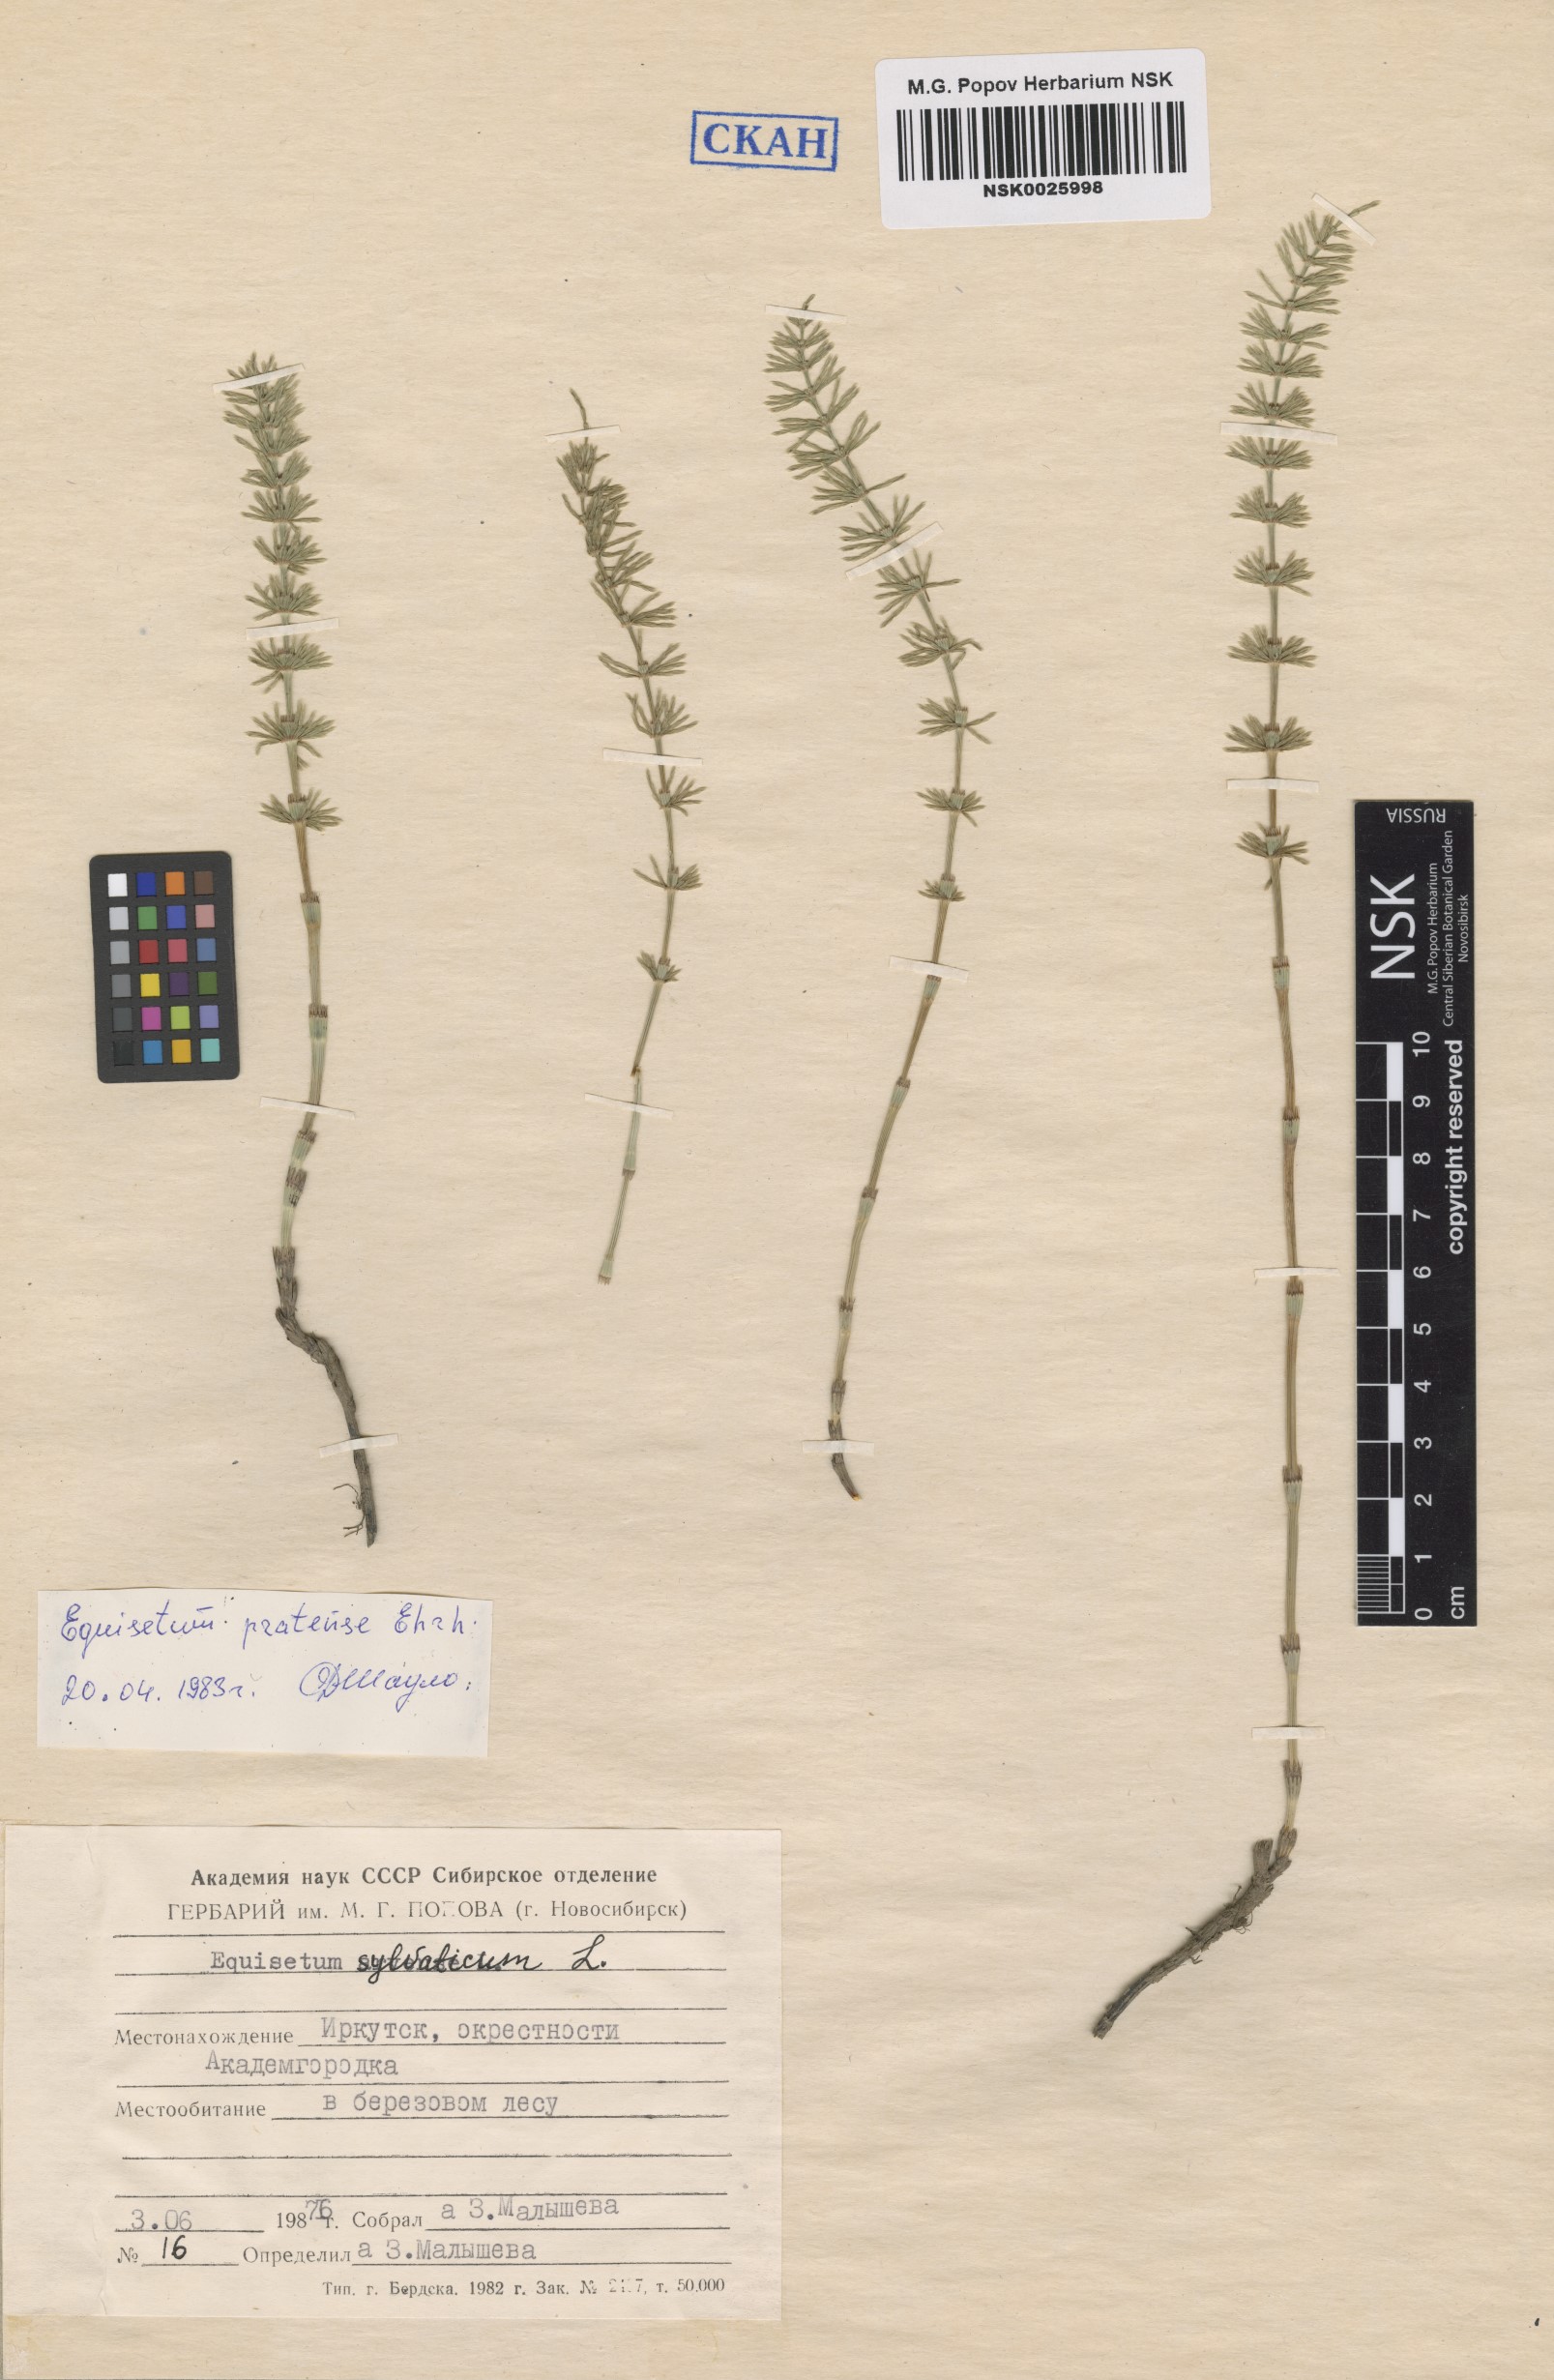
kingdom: Plantae
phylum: Tracheophyta
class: Polypodiopsida
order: Equisetales
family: Equisetaceae
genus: Equisetum
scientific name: Equisetum pratense
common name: Meadow horsetail
